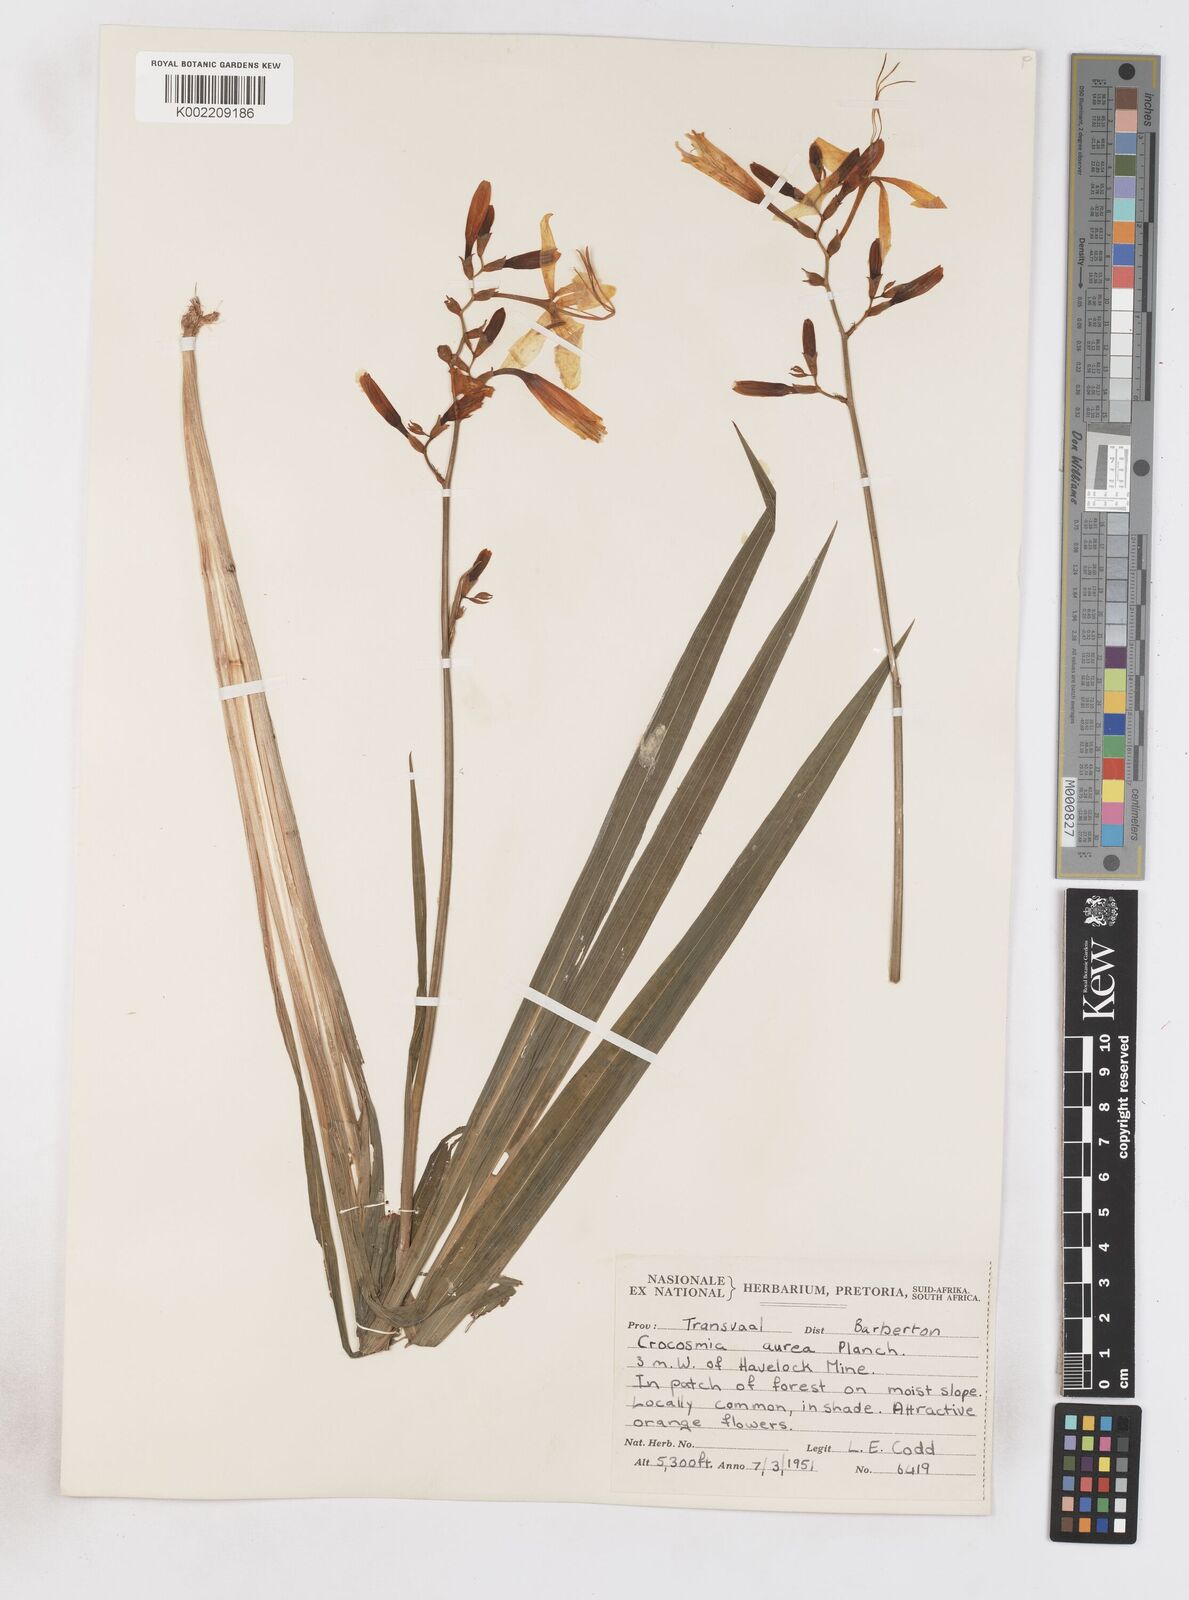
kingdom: Plantae
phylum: Tracheophyta
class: Liliopsida
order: Asparagales
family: Iridaceae
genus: Crocosmia
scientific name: Crocosmia aurea
